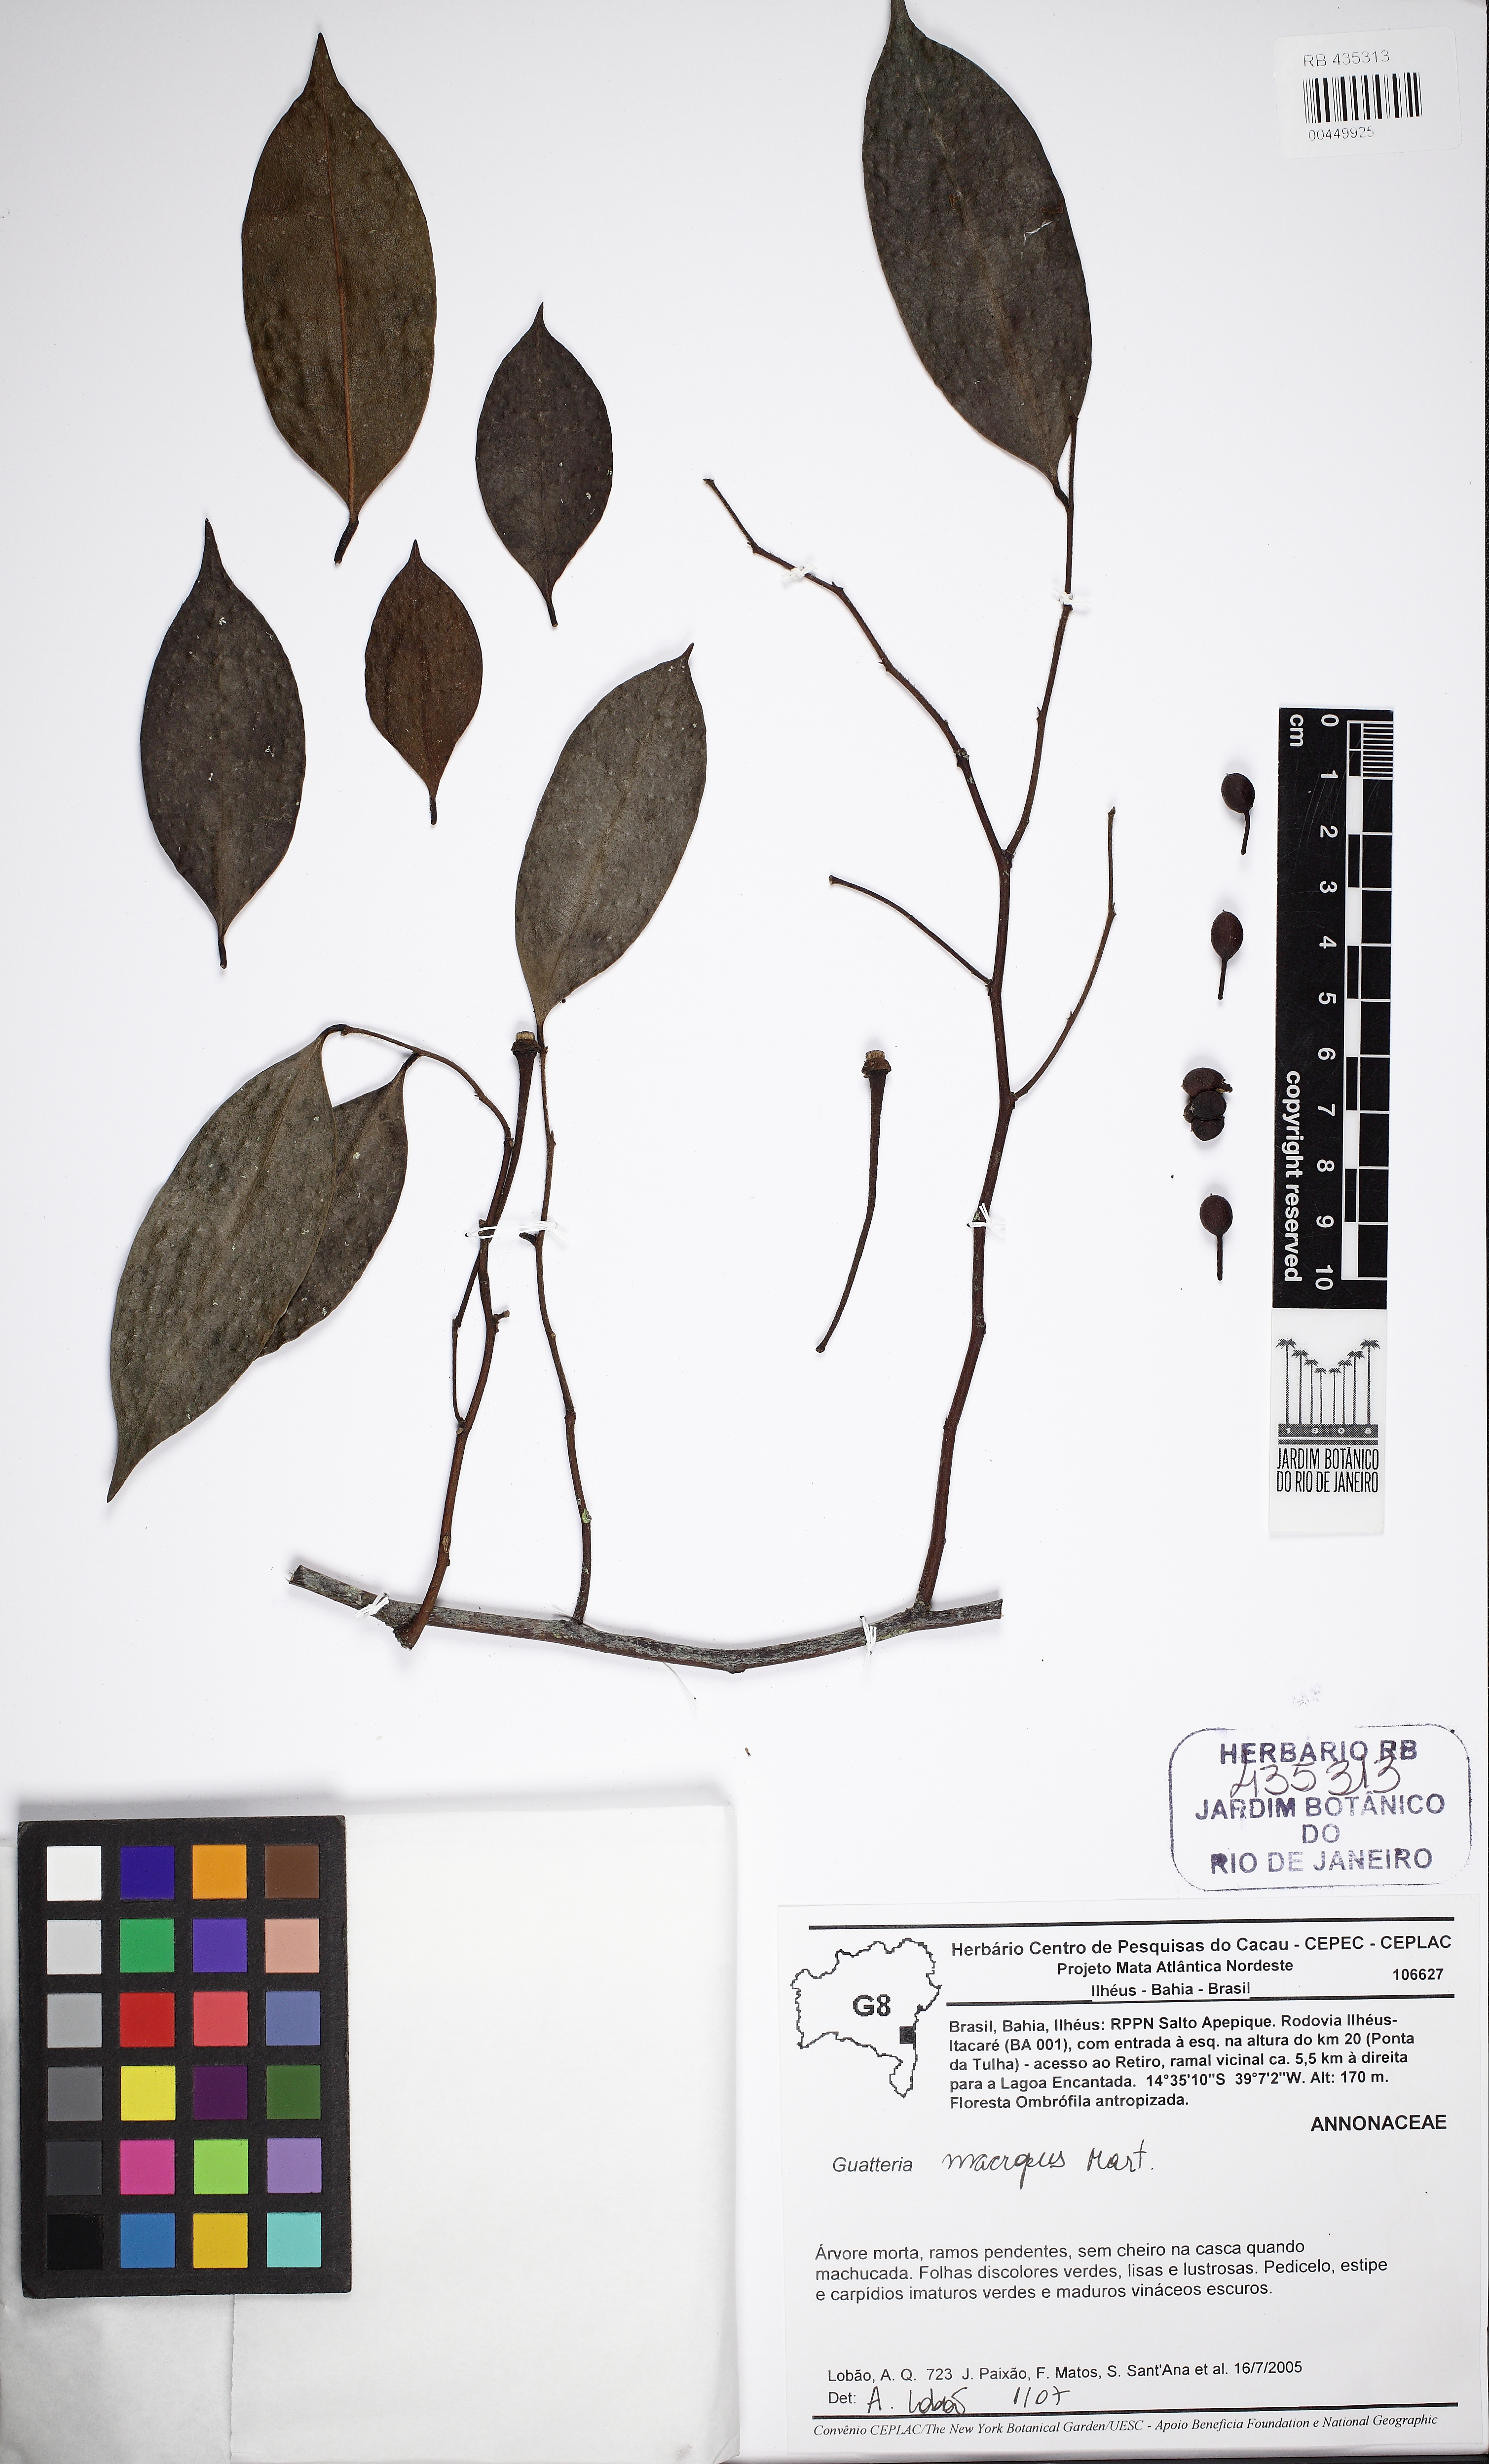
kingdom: Plantae
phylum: Tracheophyta
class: Magnoliopsida
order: Magnoliales
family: Annonaceae
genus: Guatteria
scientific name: Guatteria macropus
